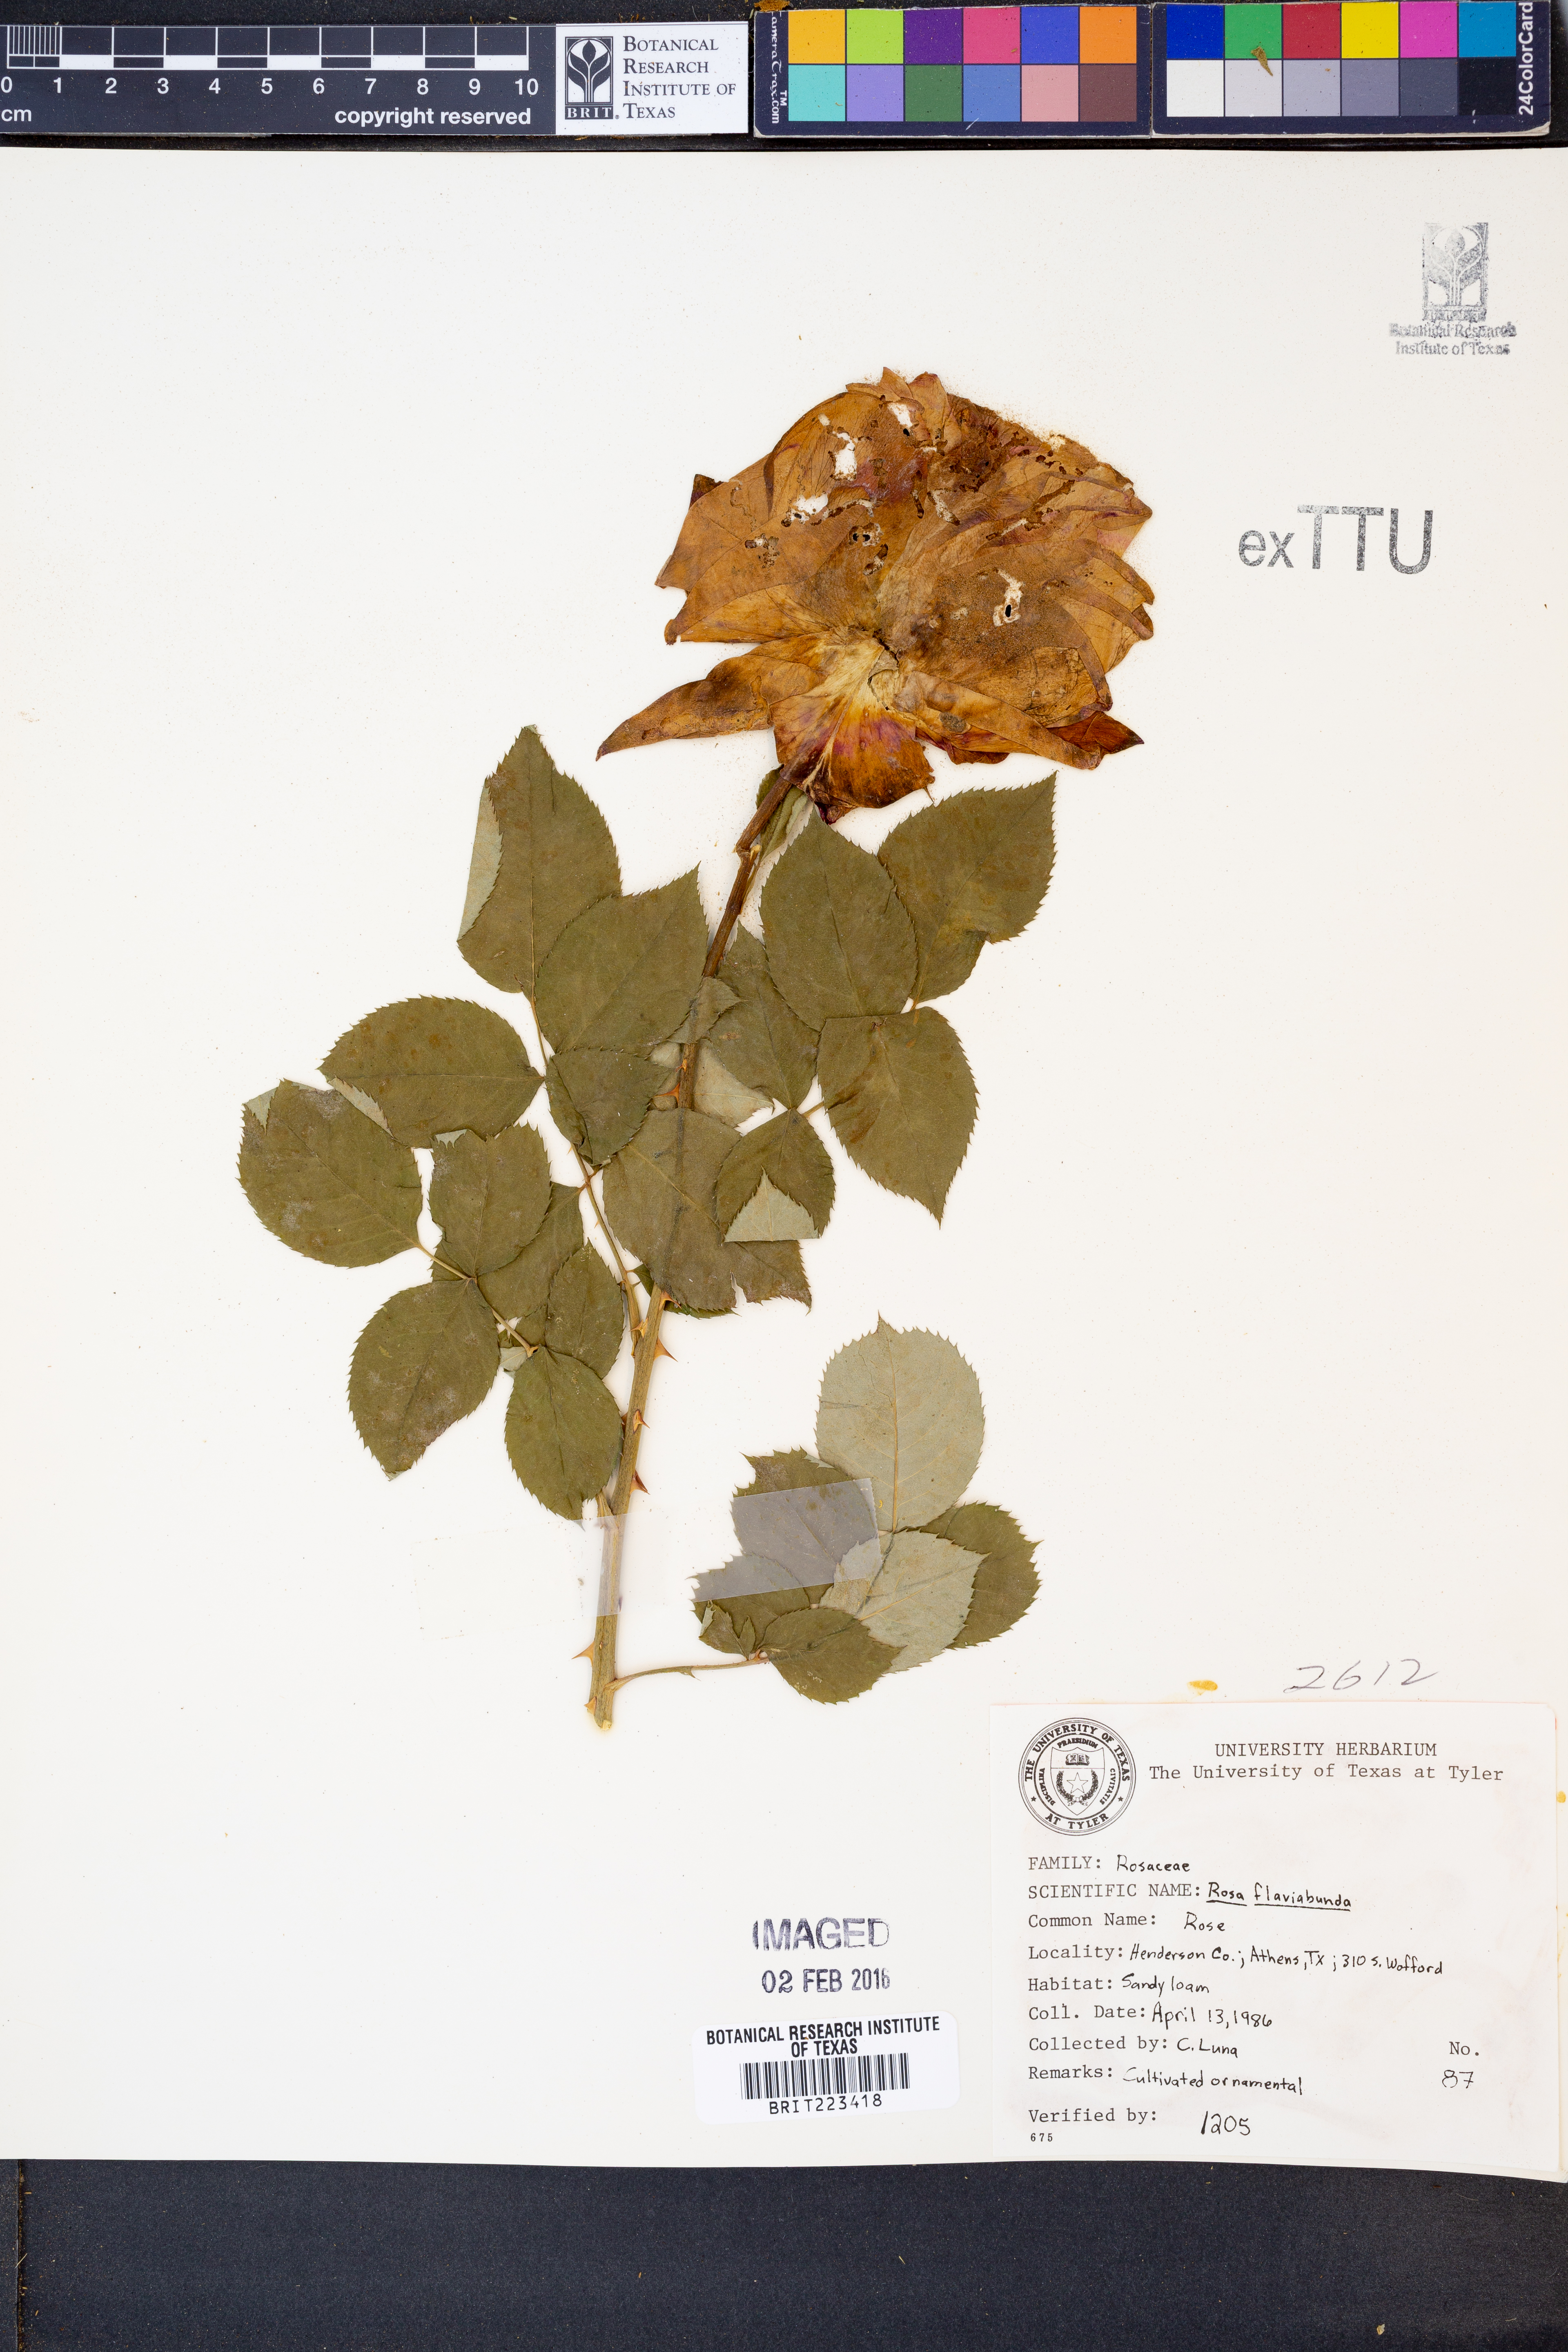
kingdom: Plantae
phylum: Tracheophyta
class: Magnoliopsida
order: Rosales
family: Rosaceae
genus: Rosa
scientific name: Rosa
